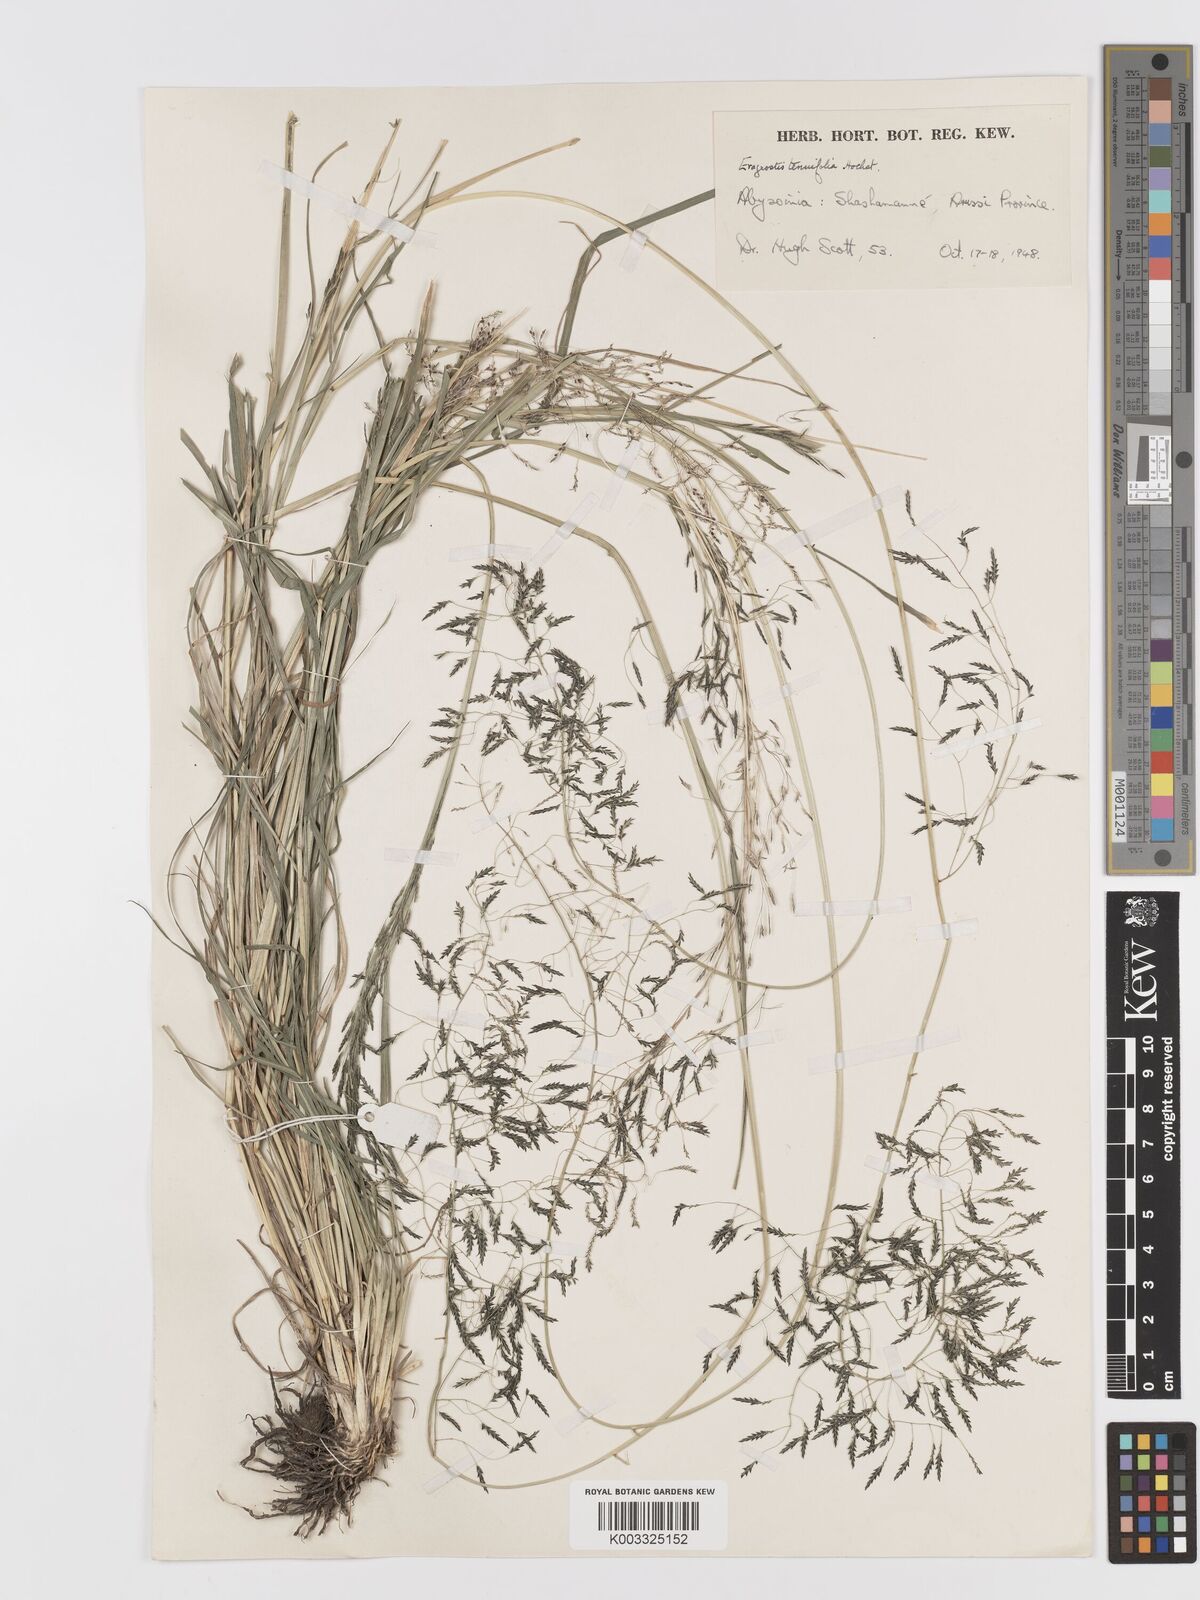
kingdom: Plantae
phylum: Tracheophyta
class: Liliopsida
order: Poales
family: Poaceae
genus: Eragrostis
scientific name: Eragrostis tenuifolia
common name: Elastic grass
